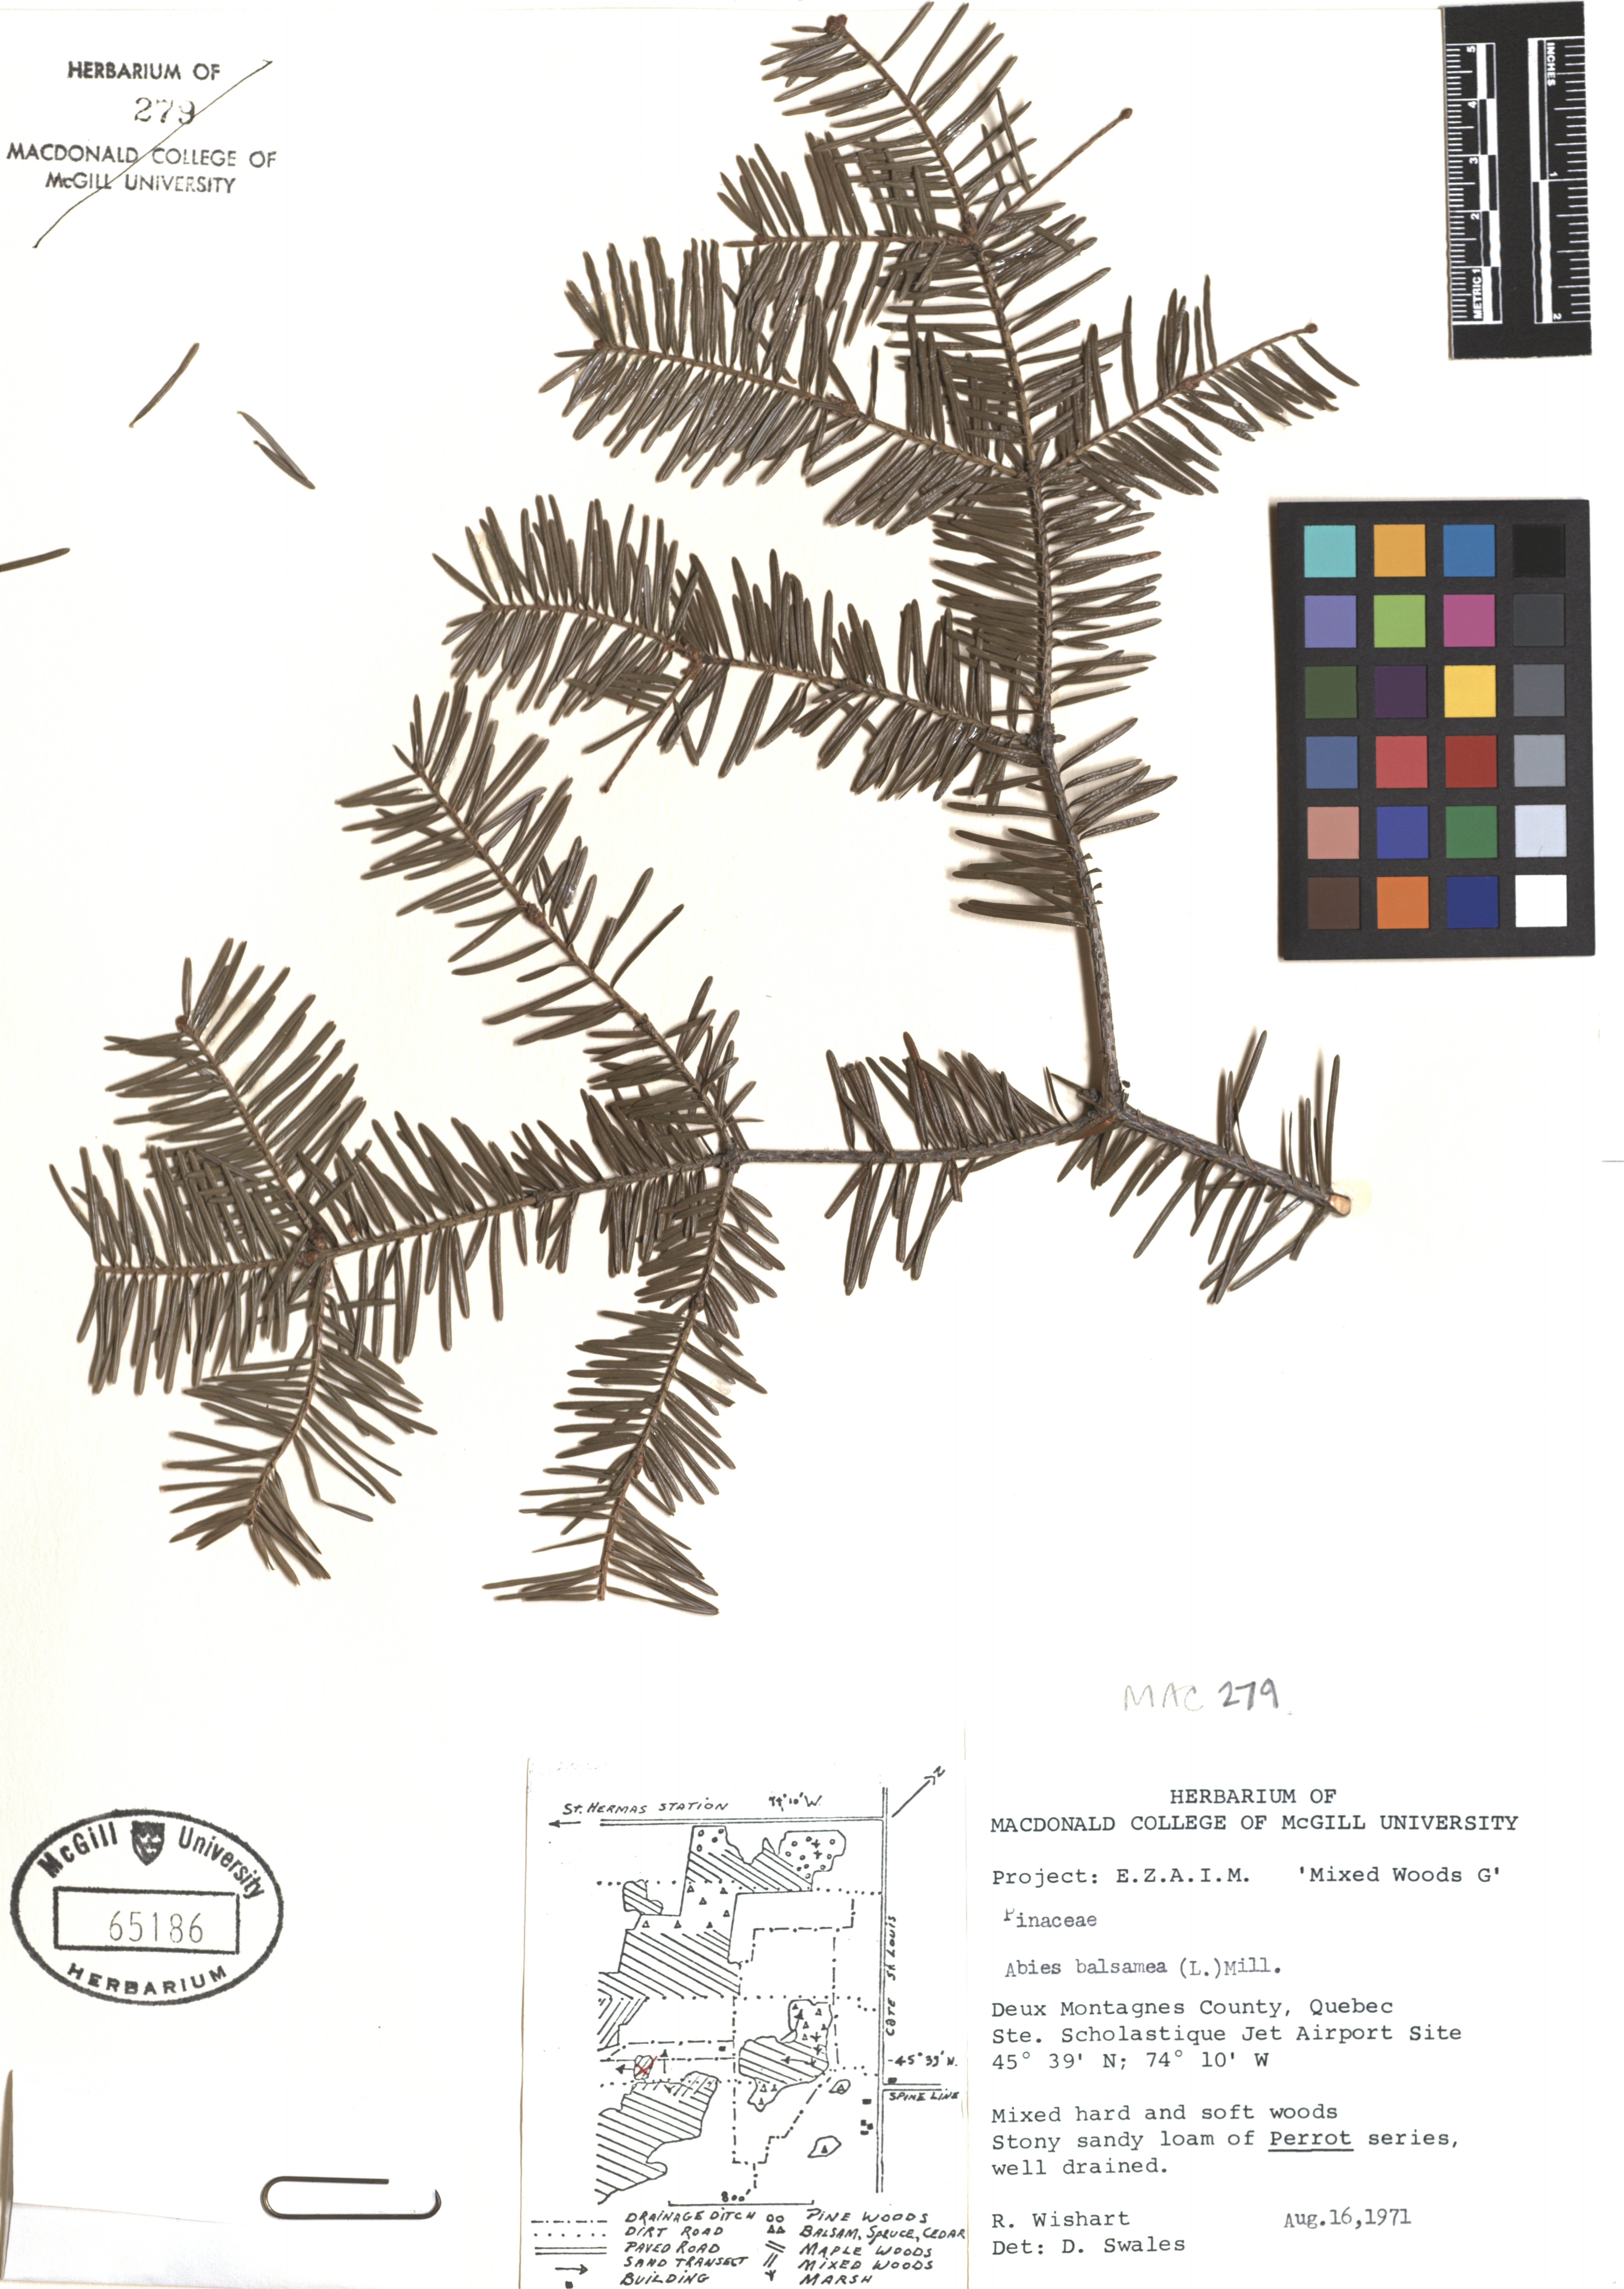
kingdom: Plantae
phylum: Tracheophyta
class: Pinopsida
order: Pinales
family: Pinaceae
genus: Abies
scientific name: Abies balsamea
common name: Balsam fir
